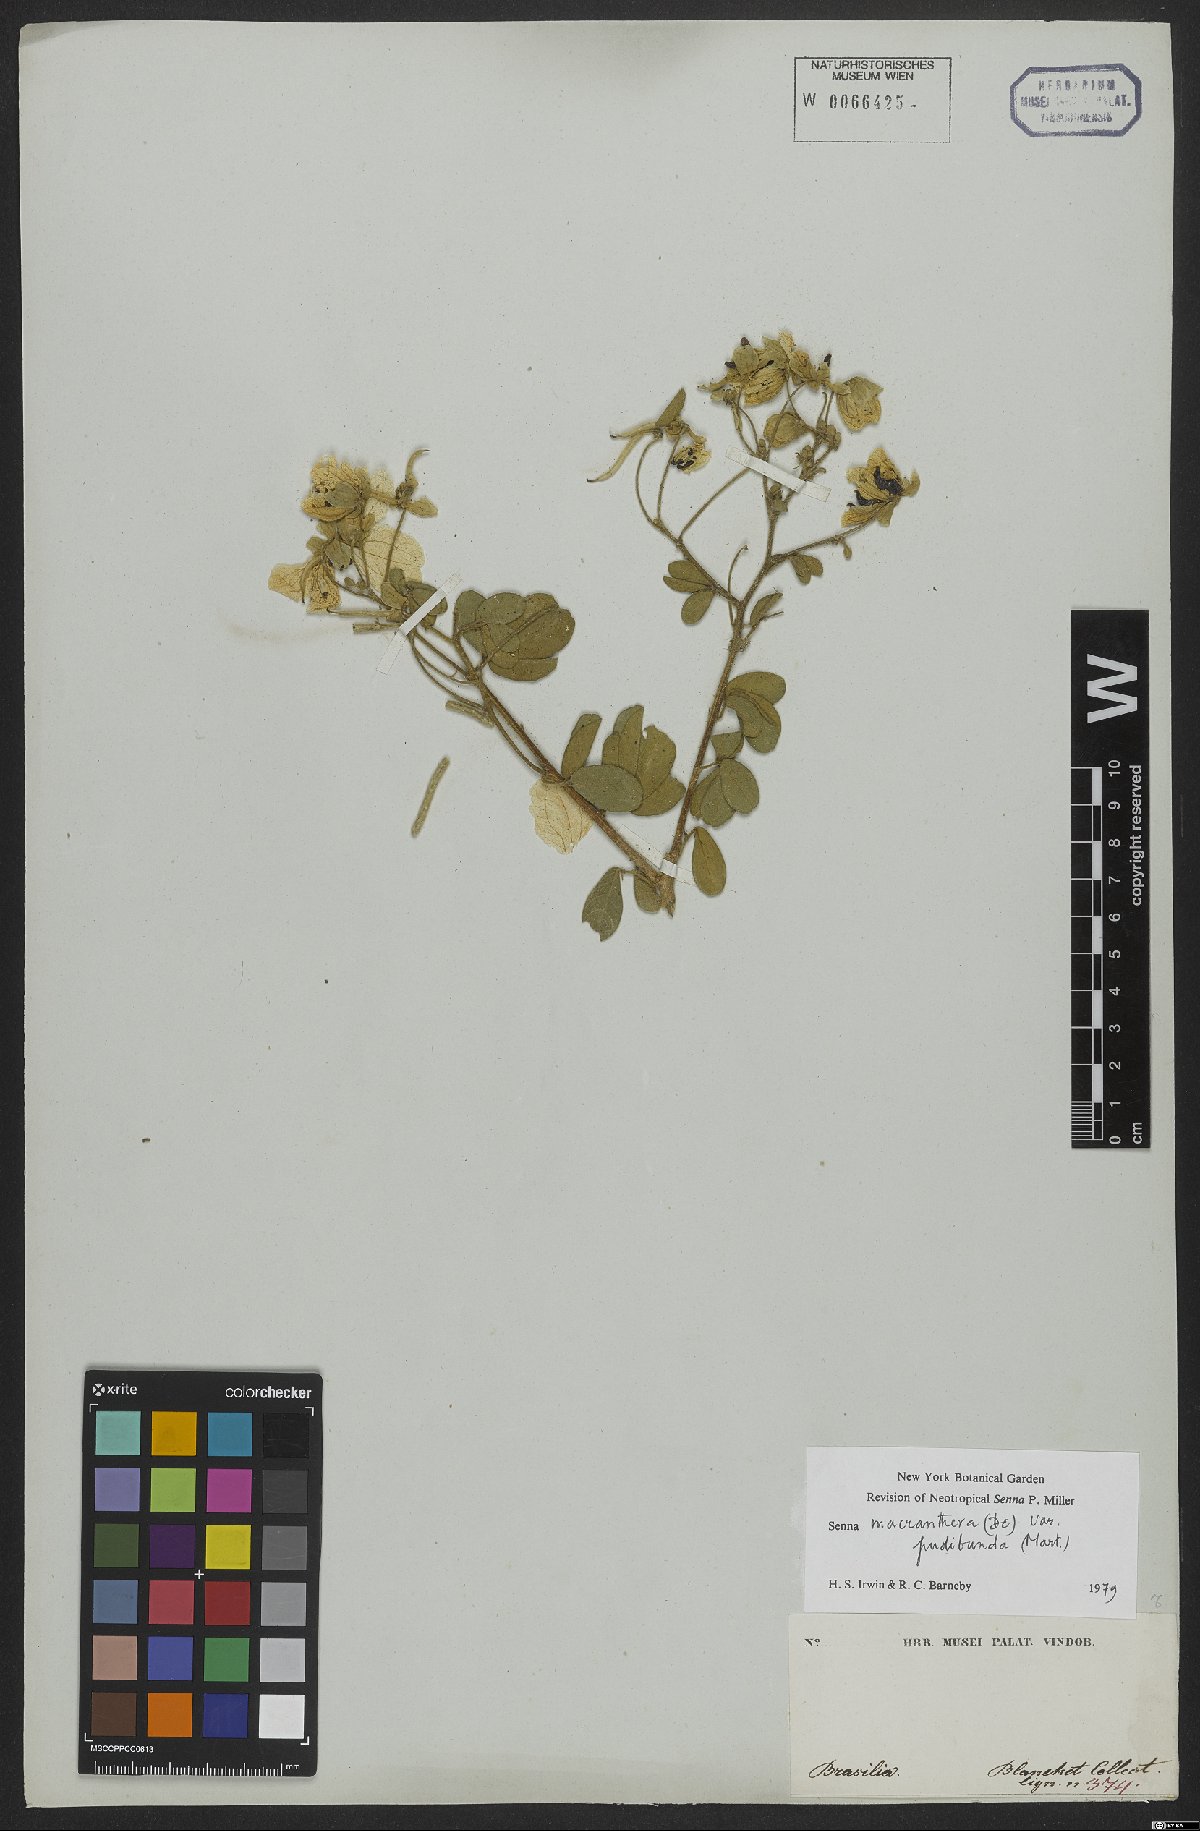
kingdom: Plantae
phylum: Tracheophyta
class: Magnoliopsida
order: Fabales
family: Fabaceae
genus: Senna
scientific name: Senna macranthera
